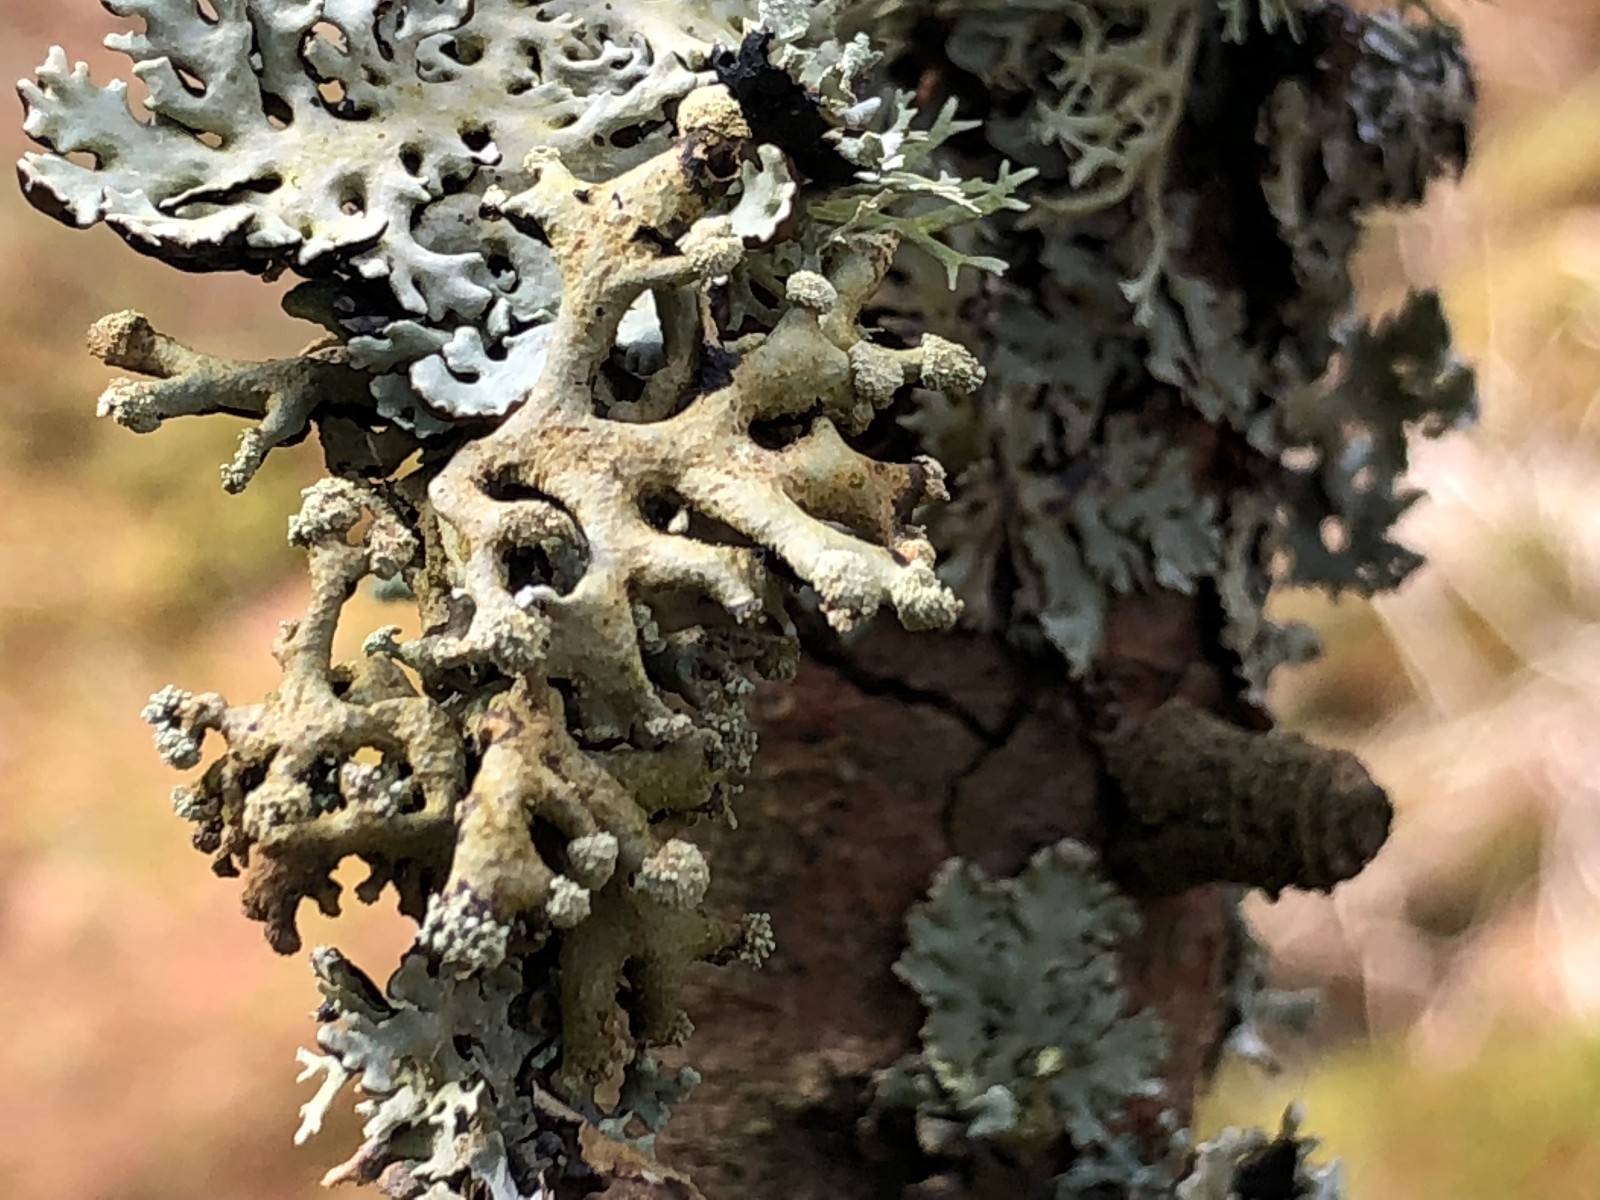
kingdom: Fungi
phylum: Ascomycota
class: Lecanoromycetes
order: Lecanorales
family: Parmeliaceae
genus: Hypogymnia
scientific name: Hypogymnia tubulosa
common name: finger-kvistlav
